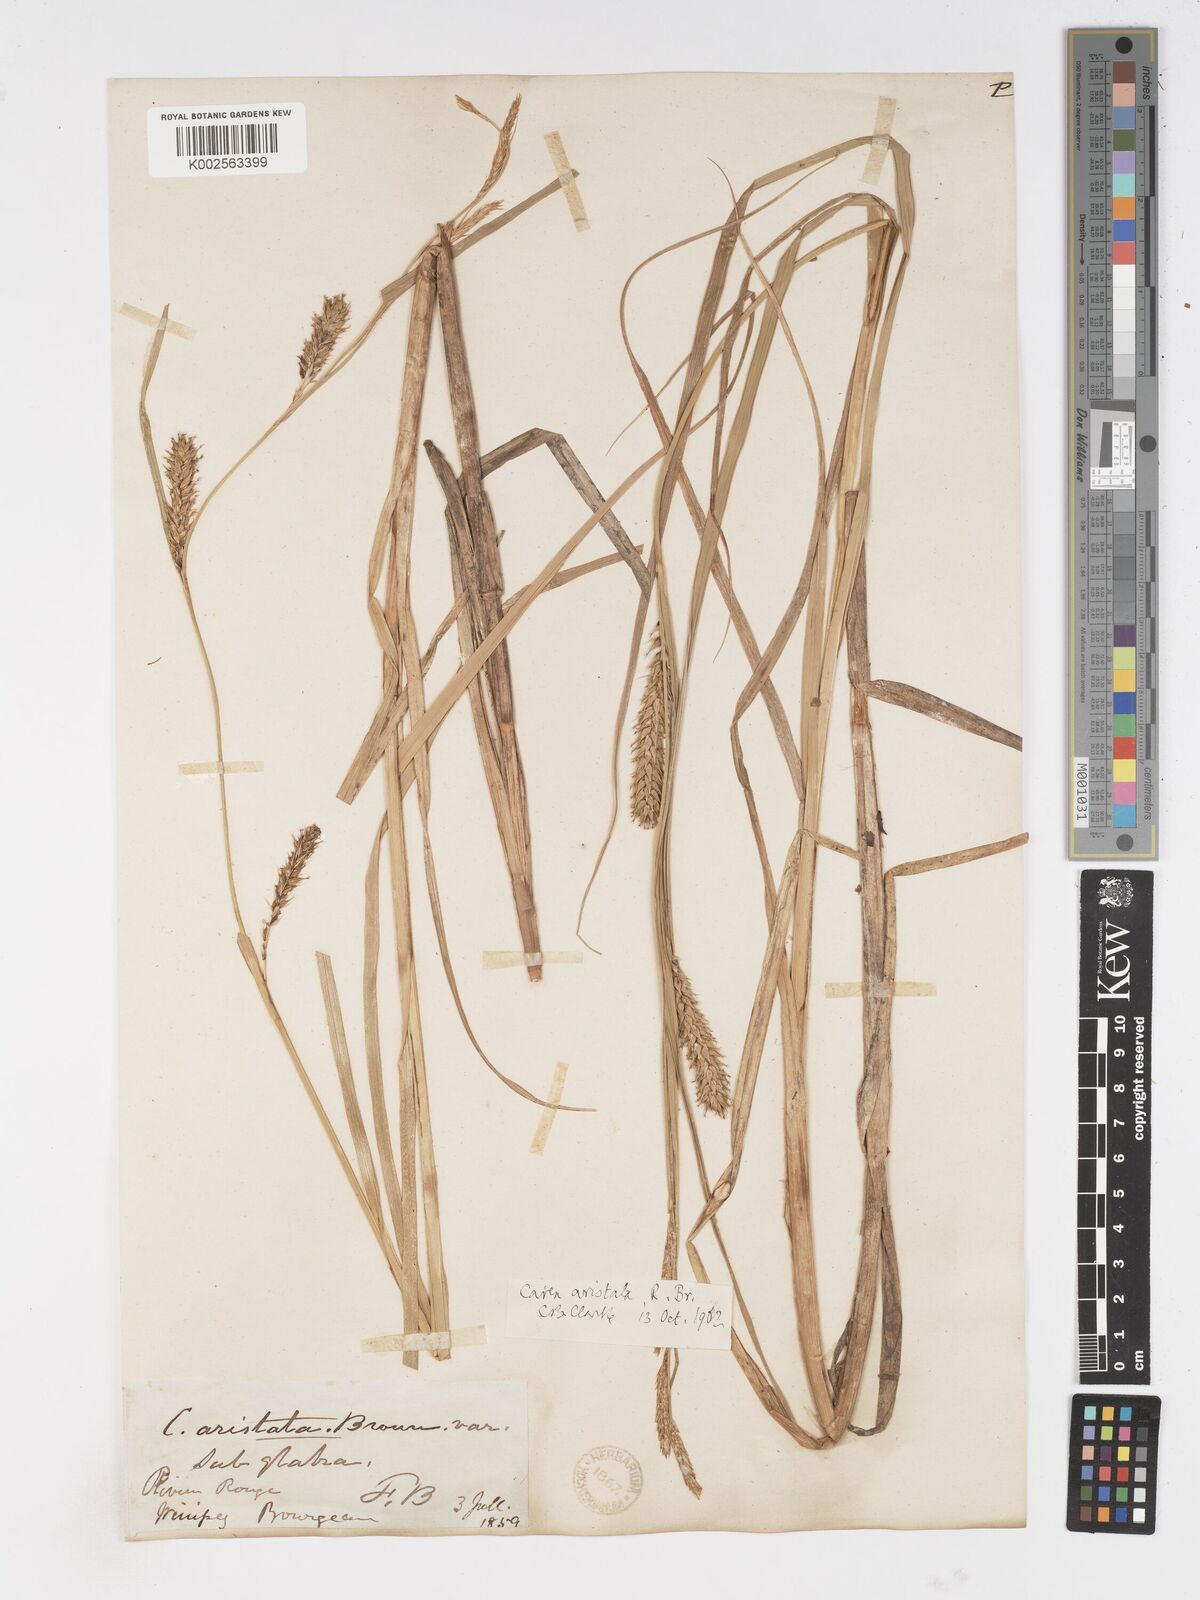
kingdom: Plantae
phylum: Tracheophyta
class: Liliopsida
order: Poales
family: Cyperaceae
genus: Carex
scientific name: Carex atherodes
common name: Wheat sedge
